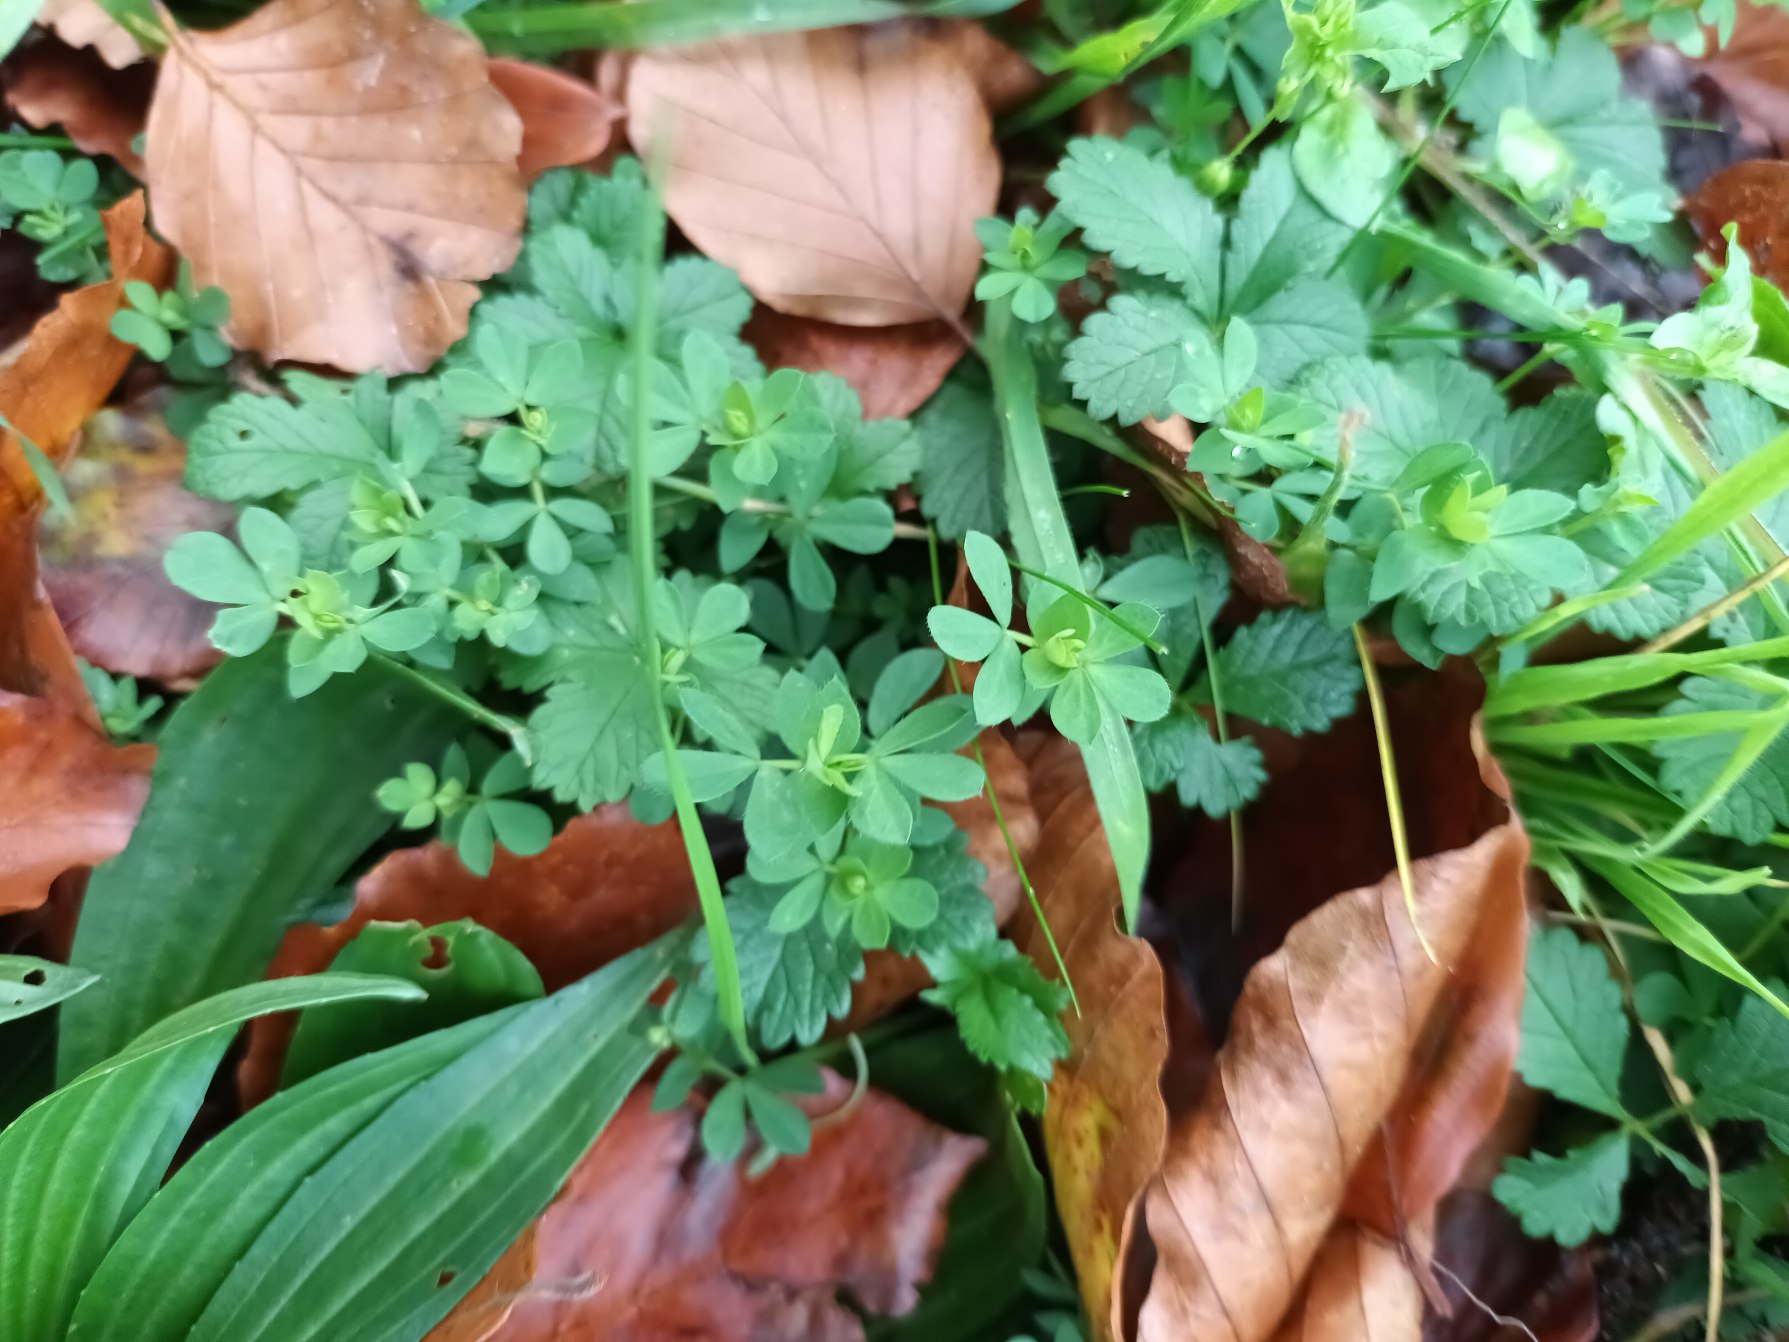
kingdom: Plantae
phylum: Tracheophyta
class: Magnoliopsida
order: Fabales
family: Fabaceae
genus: Lotus
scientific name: Lotus corniculatus
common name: Almindelig kællingetand
